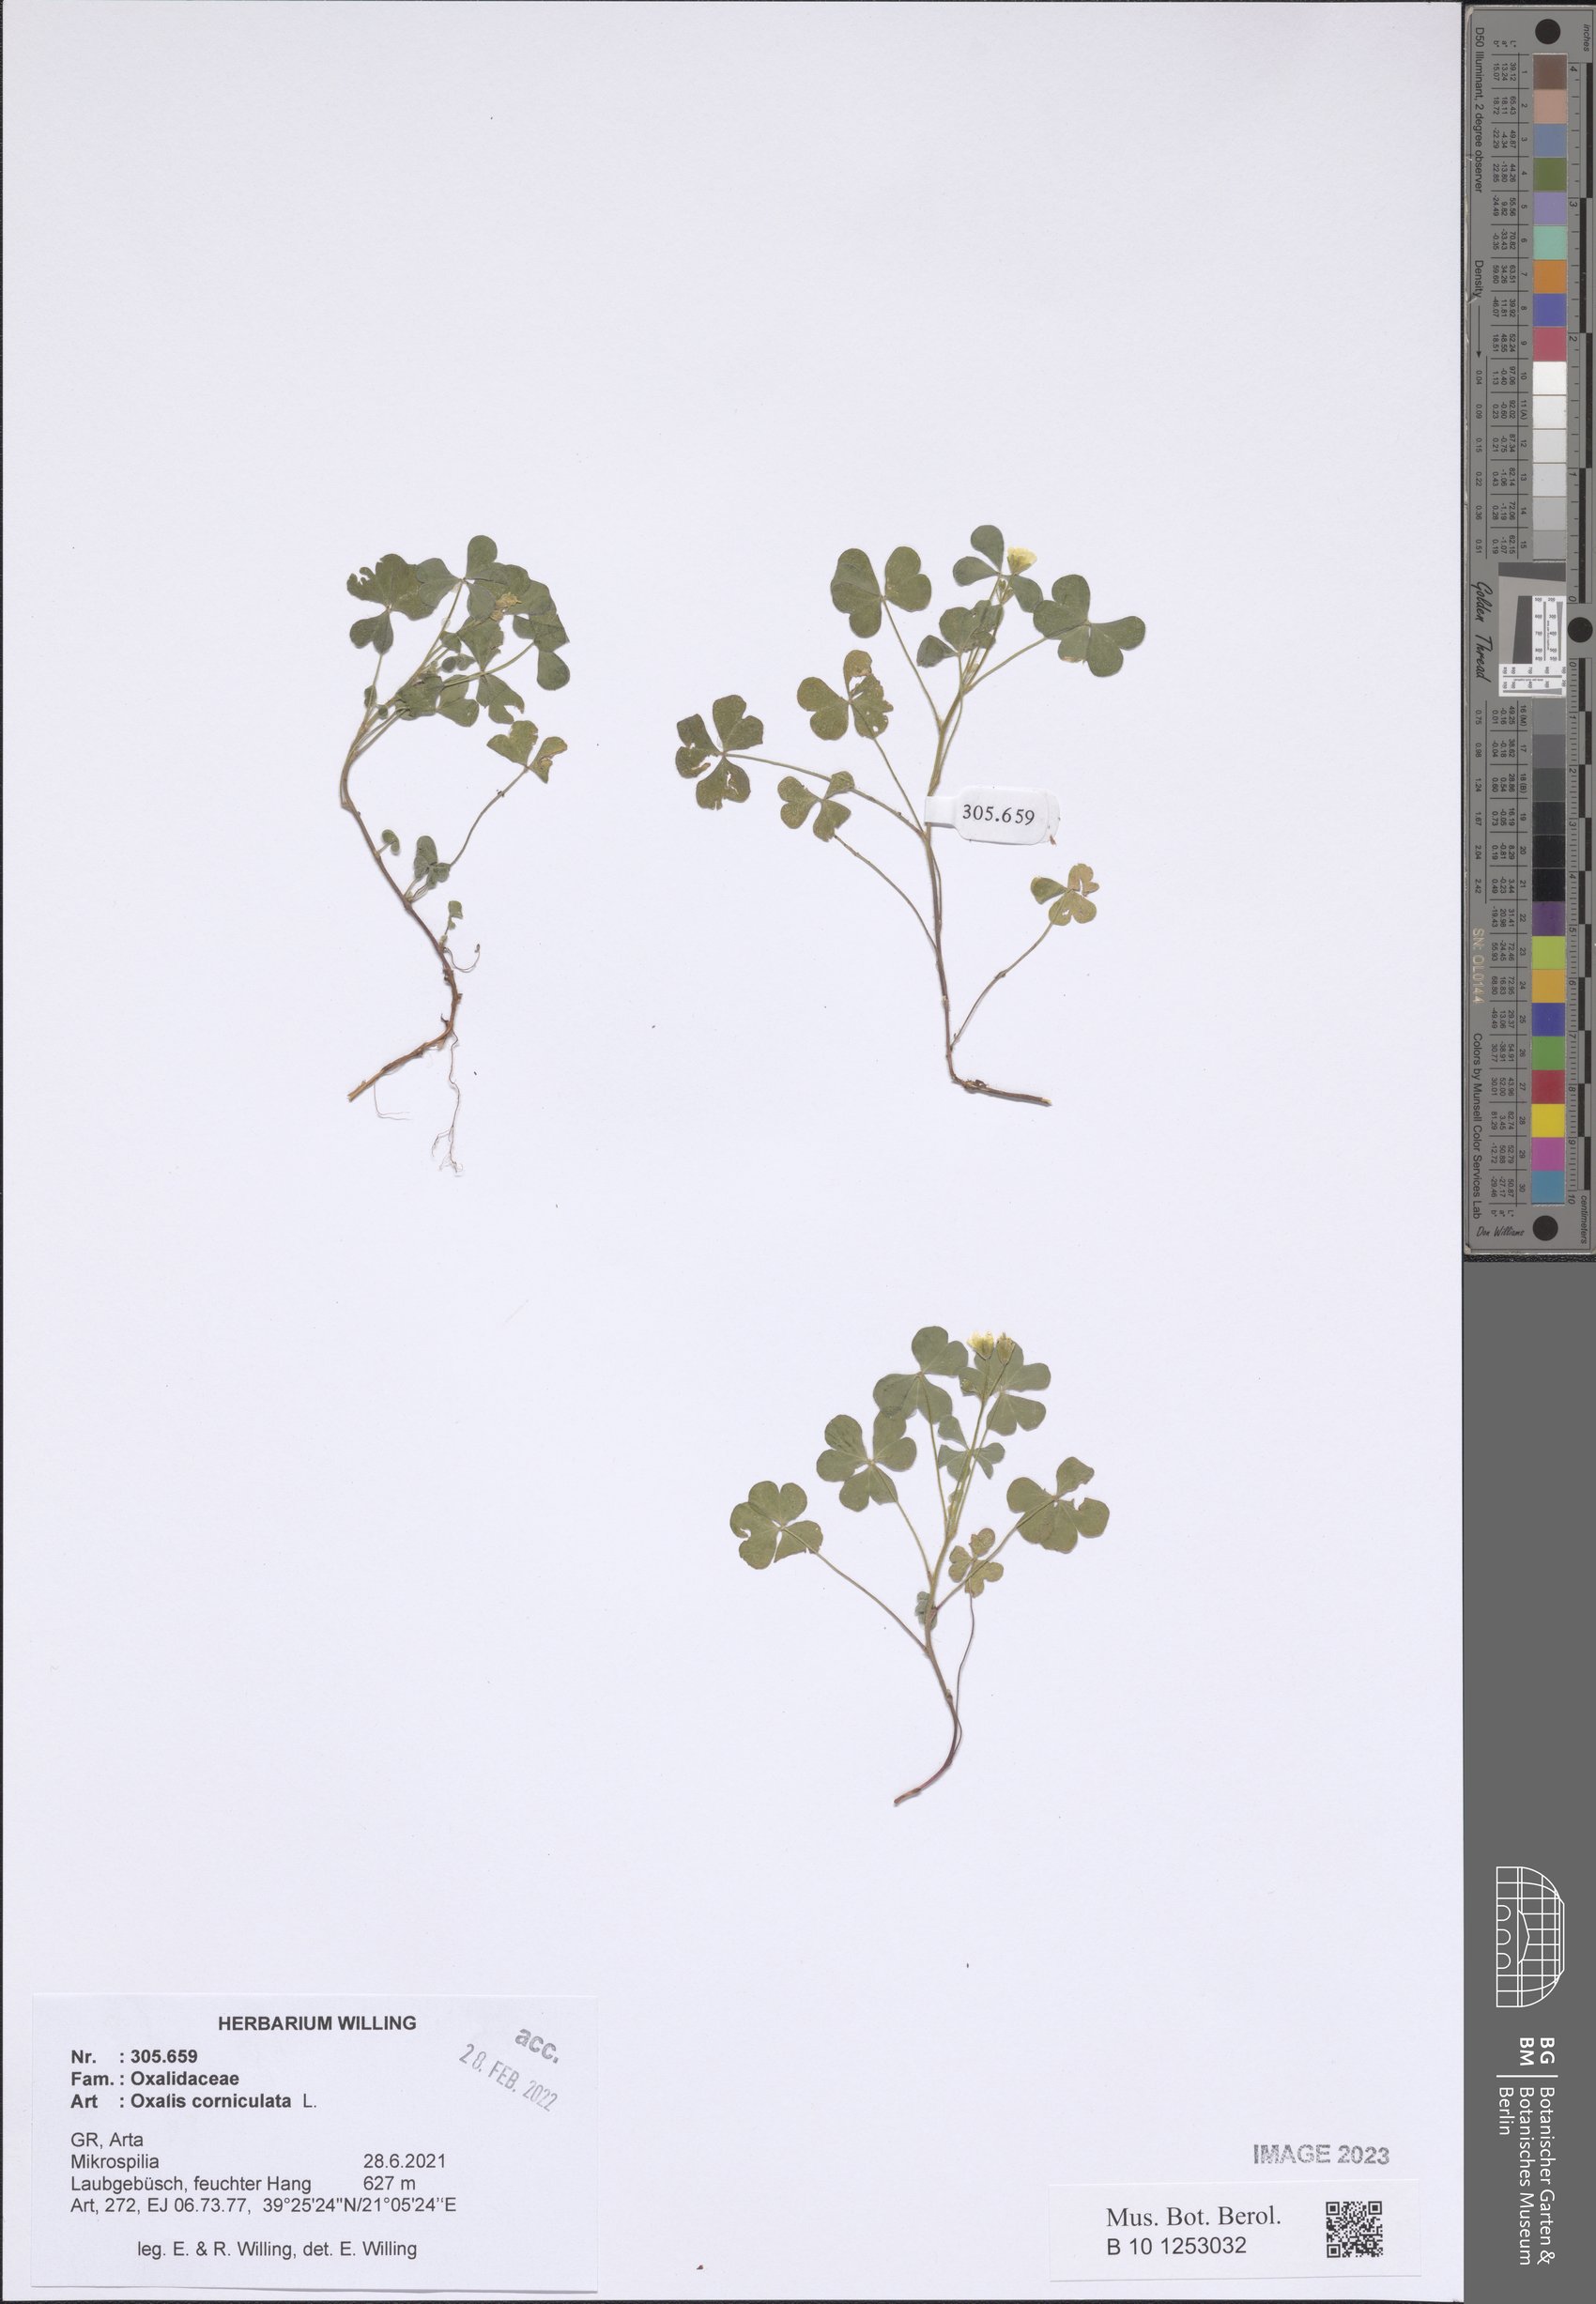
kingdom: Plantae
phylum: Tracheophyta
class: Magnoliopsida
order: Oxalidales
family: Oxalidaceae
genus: Oxalis
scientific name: Oxalis corniculata
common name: Procumbent yellow-sorrel
